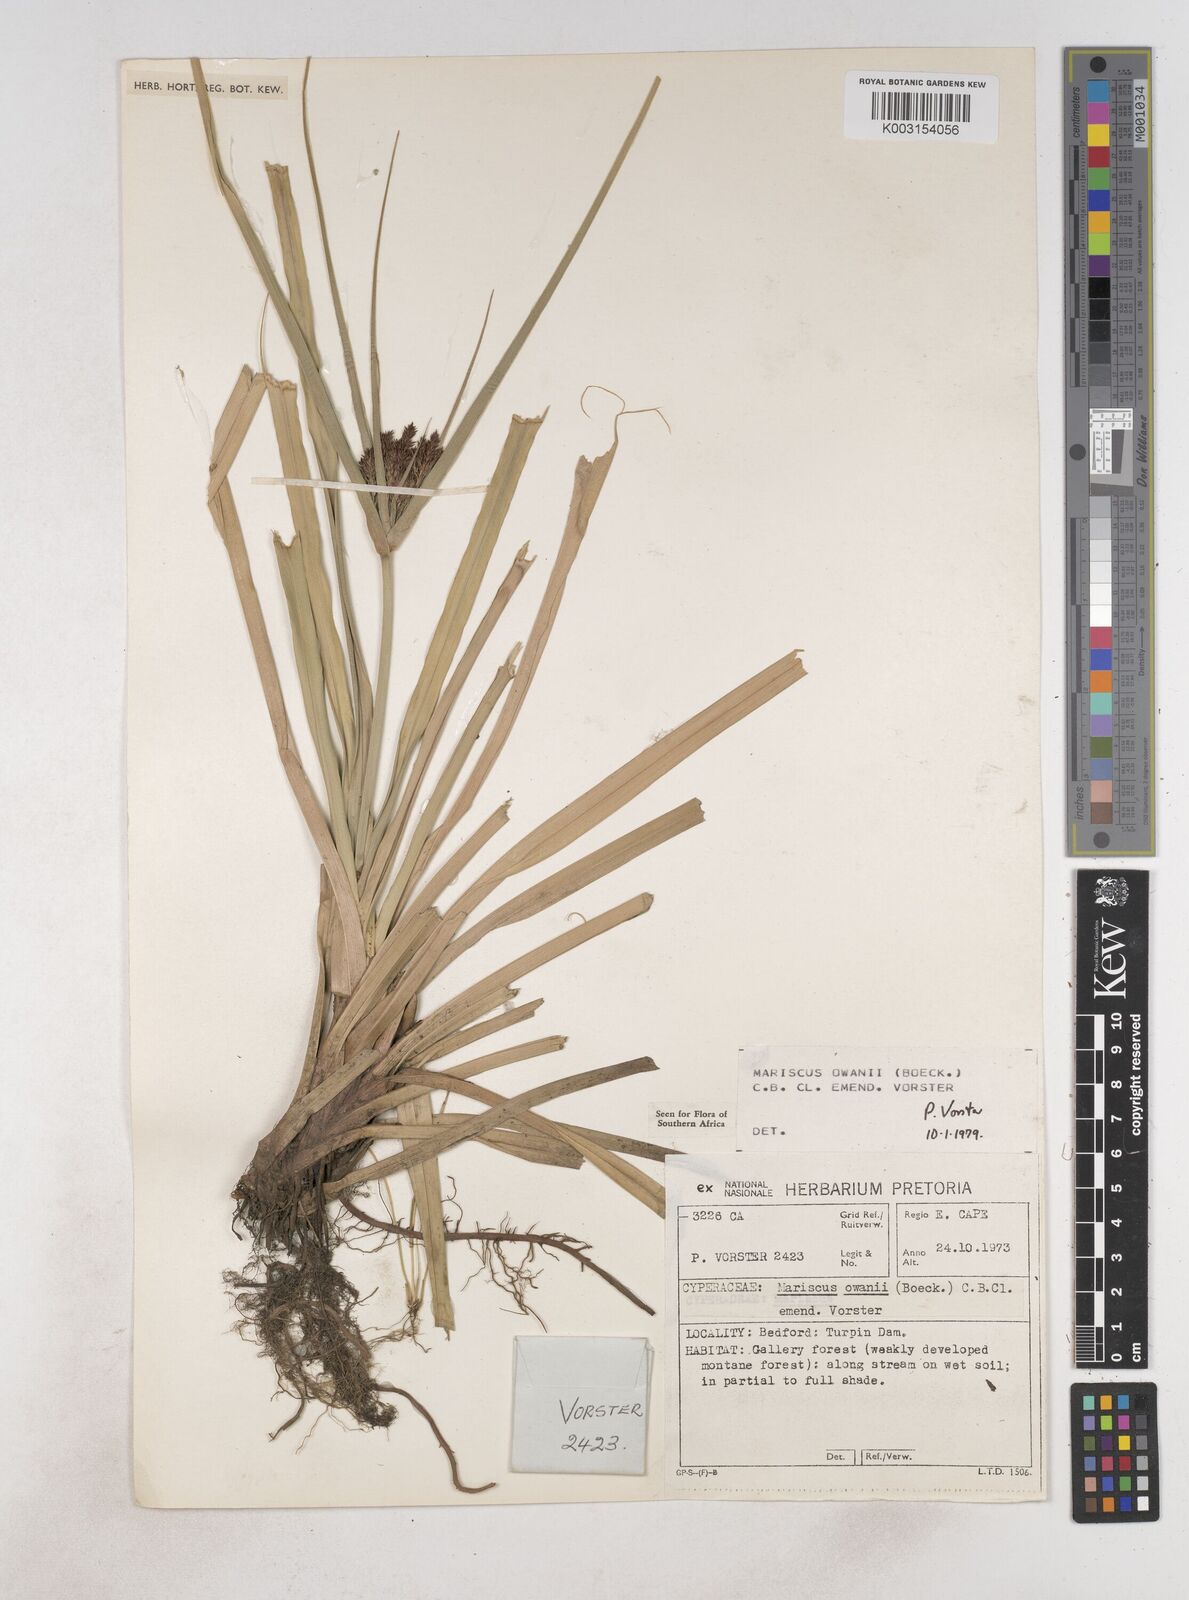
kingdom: Plantae
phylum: Tracheophyta
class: Liliopsida
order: Poales
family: Cyperaceae
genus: Cyperus
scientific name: Cyperus owanii
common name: Owan's flatsedge
